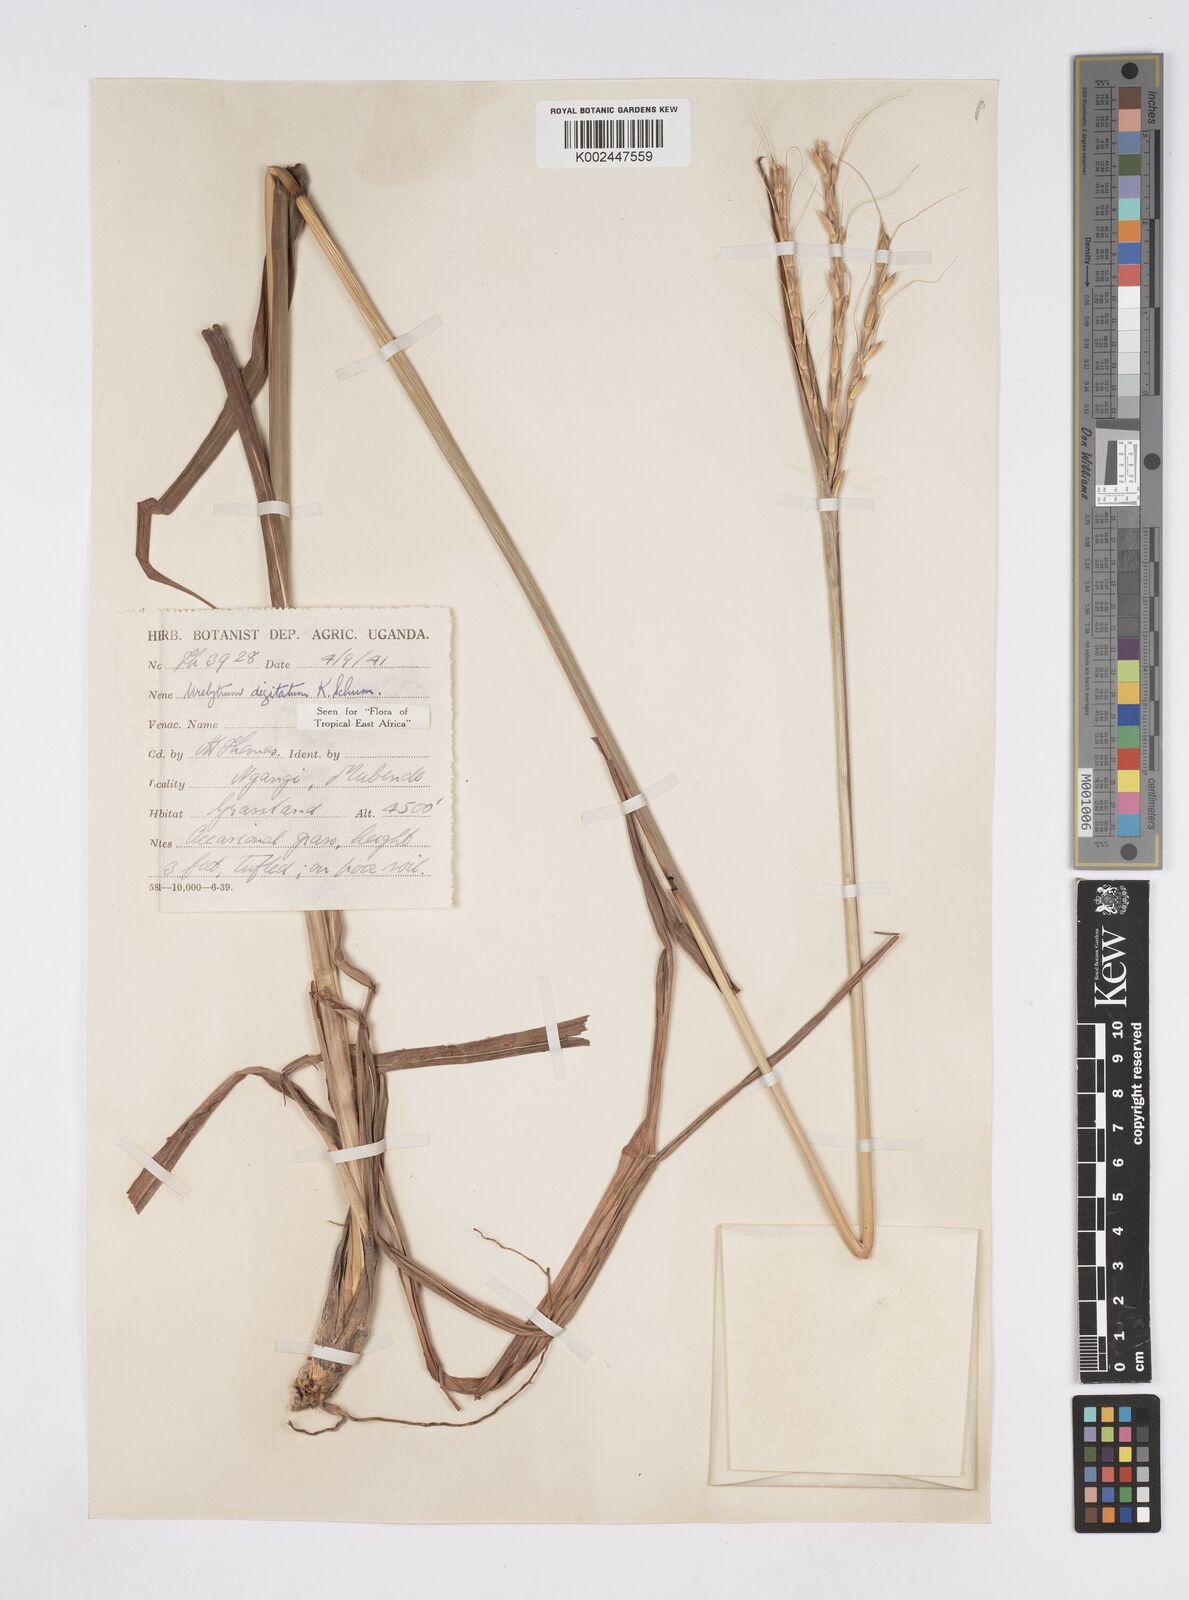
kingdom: Plantae
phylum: Tracheophyta
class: Liliopsida
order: Poales
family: Poaceae
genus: Urelytrum
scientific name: Urelytrum digitatum
